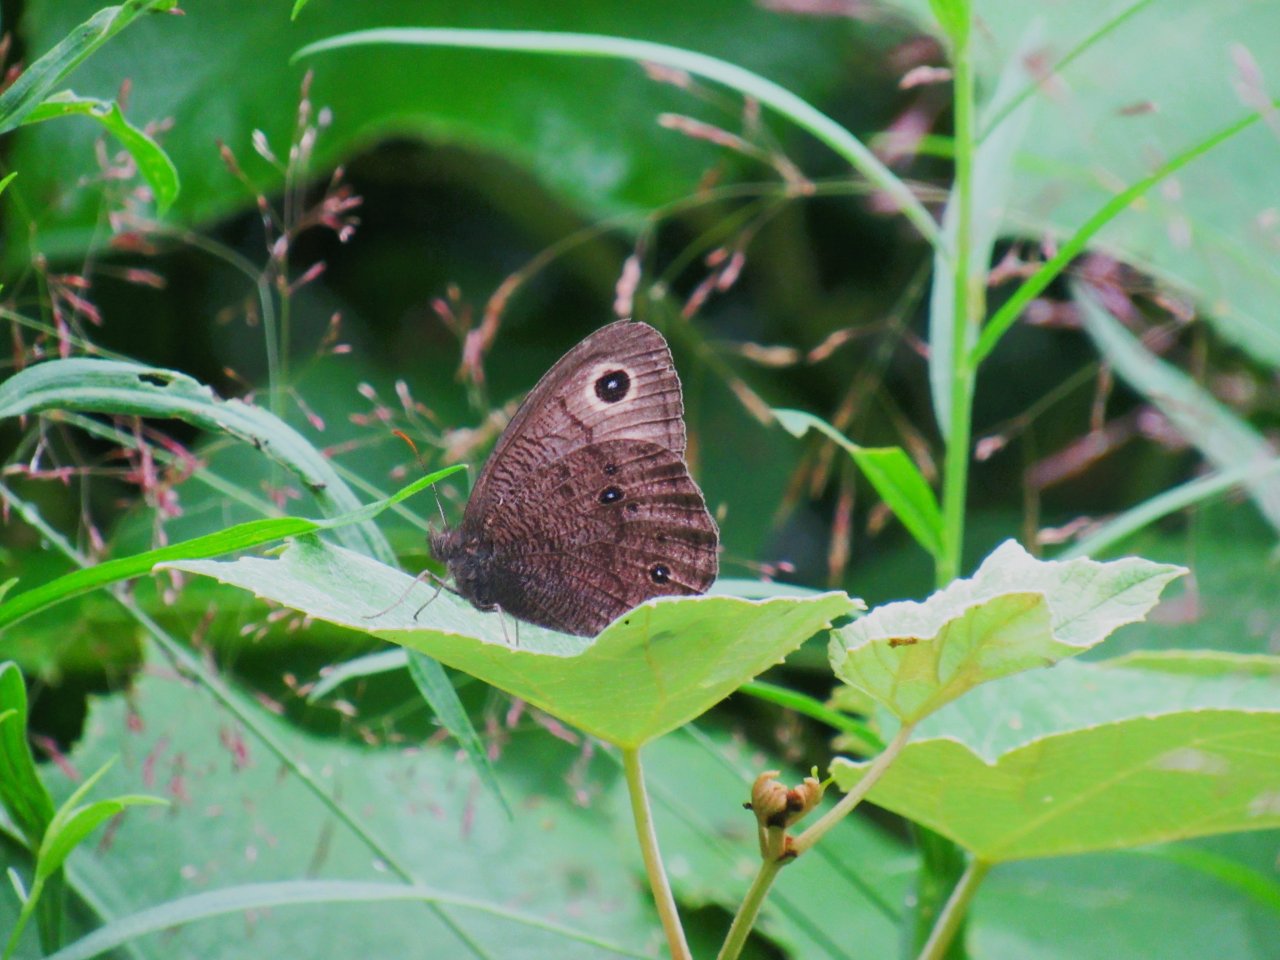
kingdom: Animalia
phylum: Arthropoda
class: Insecta
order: Lepidoptera
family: Nymphalidae
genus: Cercyonis
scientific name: Cercyonis pegala
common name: Common Wood-Nymph
